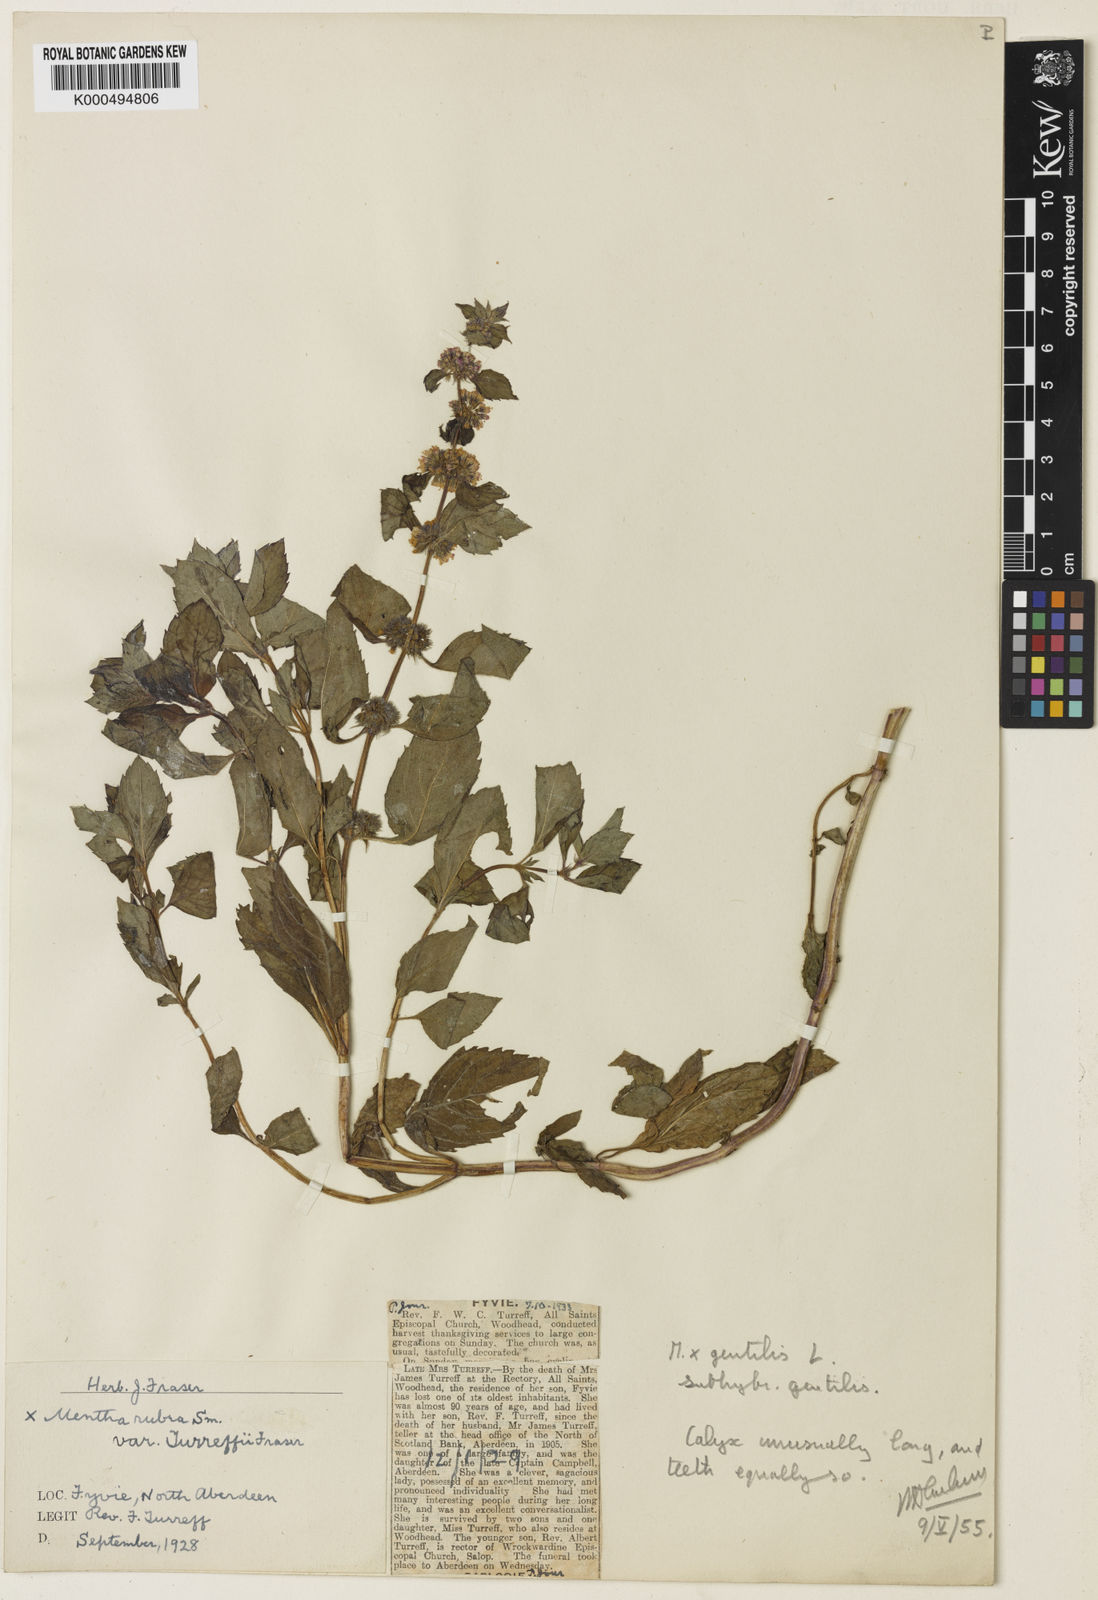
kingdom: Plantae
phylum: Tracheophyta
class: Magnoliopsida
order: Lamiales
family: Lamiaceae
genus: Mentha
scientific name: Mentha arvensis
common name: Corn mint
